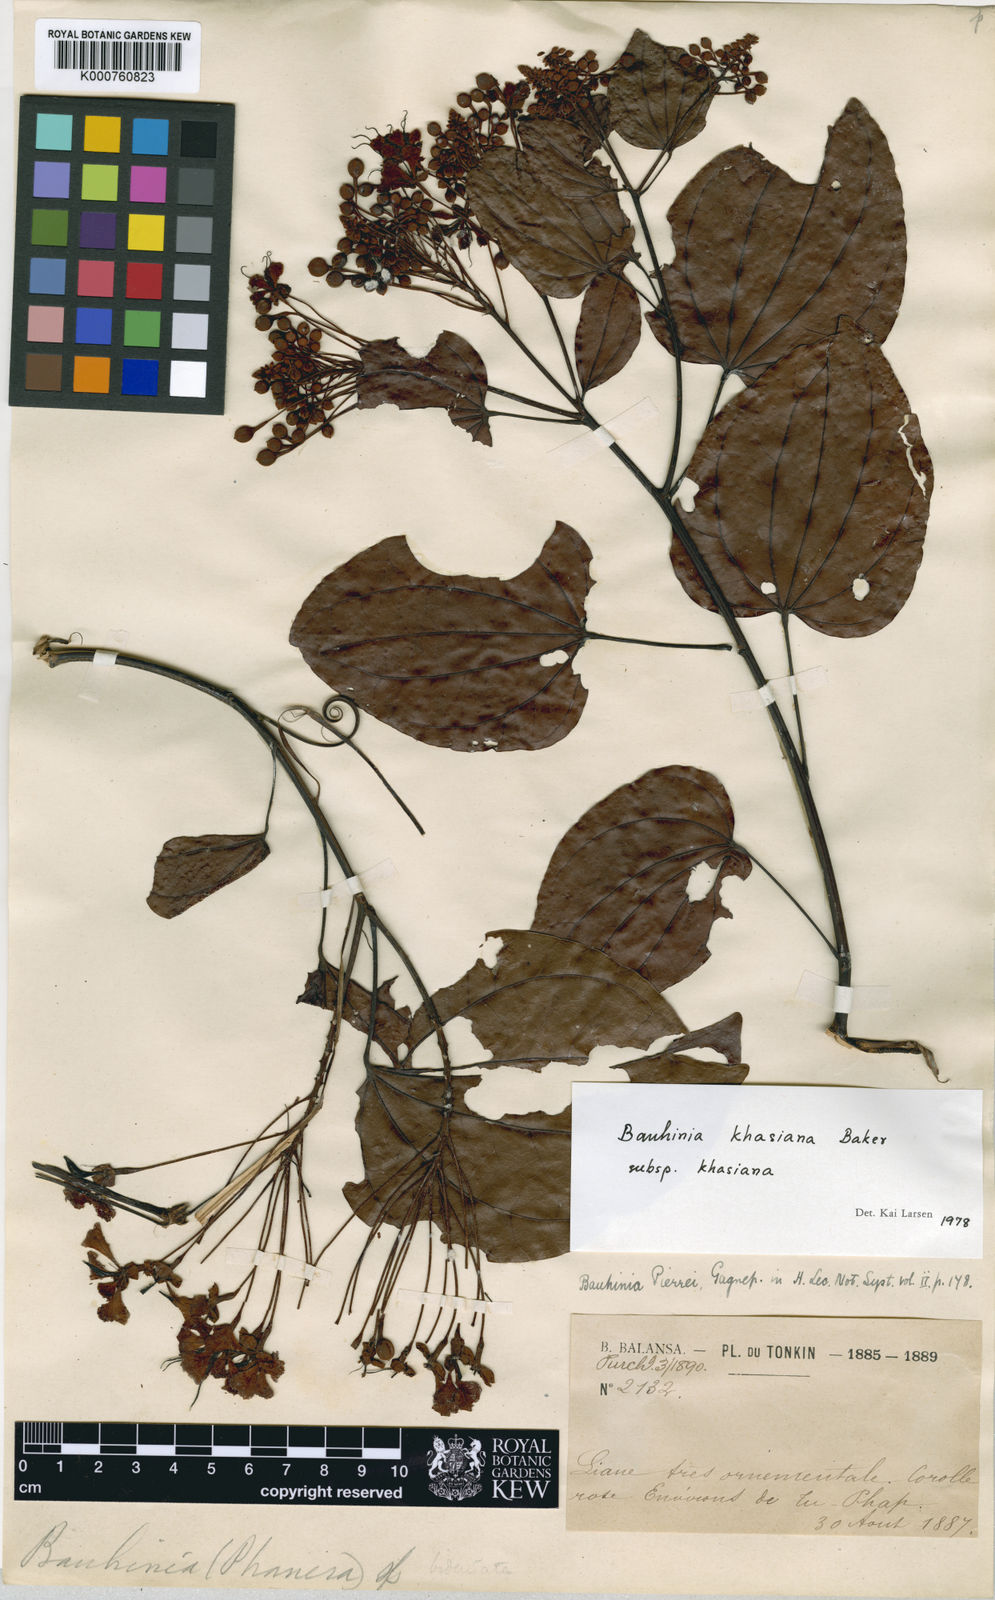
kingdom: Plantae
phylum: Tracheophyta
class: Magnoliopsida
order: Fabales
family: Fabaceae
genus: Phanera
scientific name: Phanera khasiana
